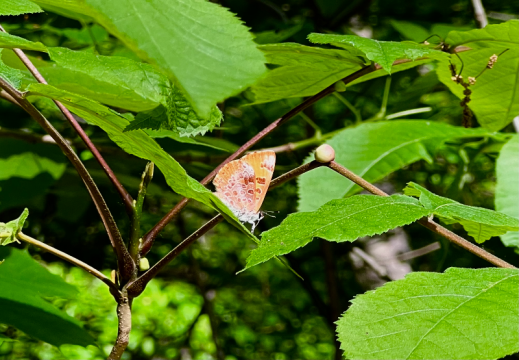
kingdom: Animalia
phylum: Arthropoda
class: Insecta
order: Lepidoptera
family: Lycaenidae
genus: Feniseca
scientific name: Feniseca tarquinius
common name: Harvester
